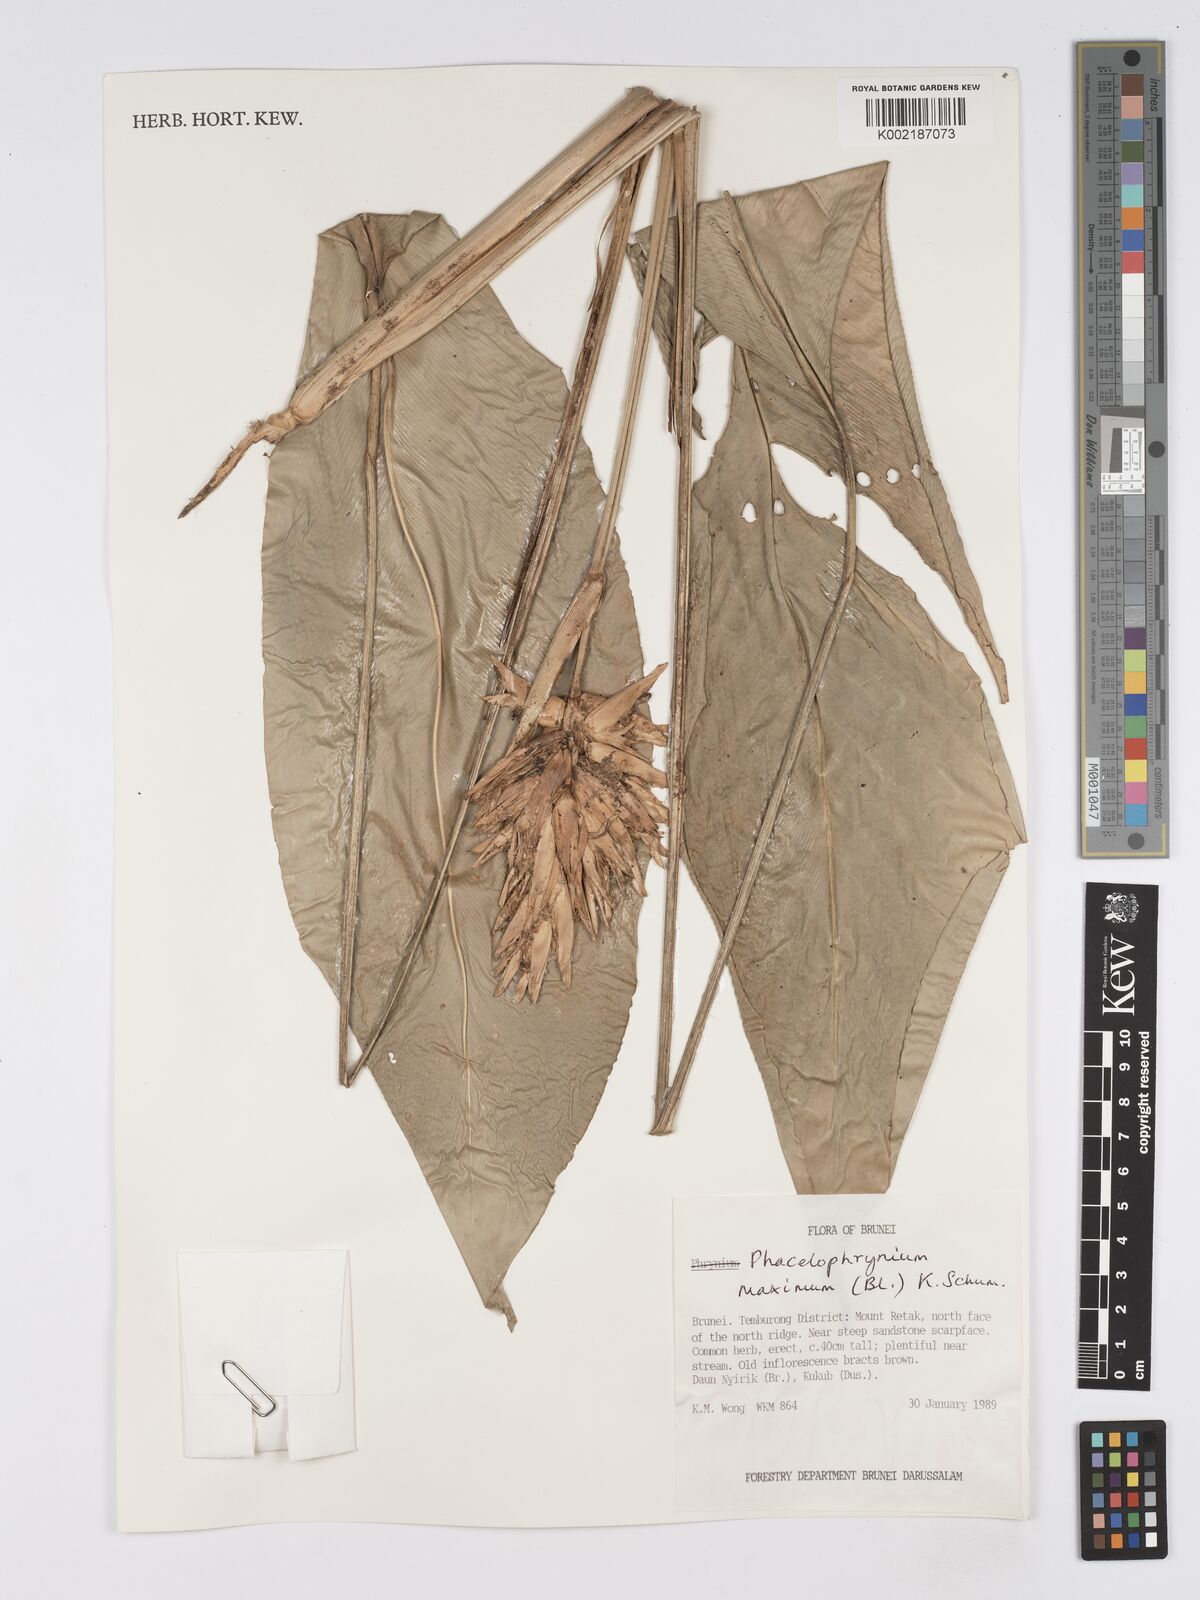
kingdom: Plantae
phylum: Tracheophyta
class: Liliopsida
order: Zingiberales
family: Marantaceae
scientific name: Marantaceae
